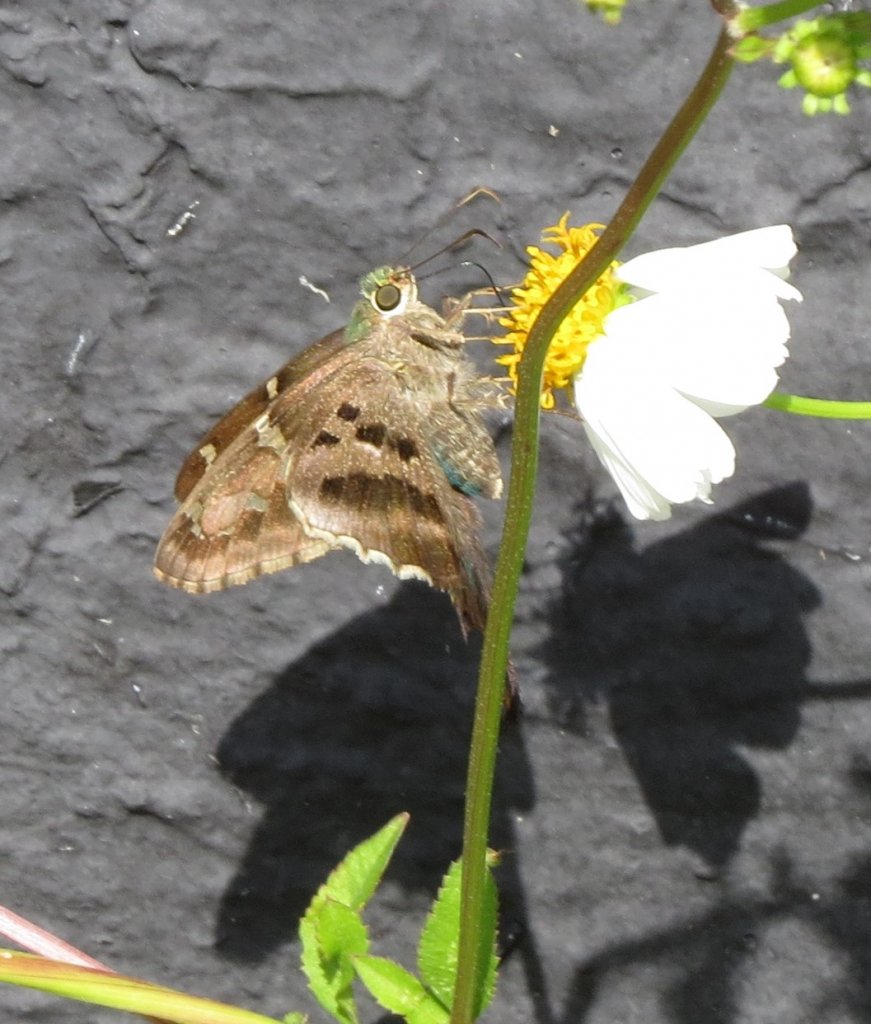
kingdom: Animalia
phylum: Arthropoda
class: Insecta
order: Lepidoptera
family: Hesperiidae
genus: Urbanus
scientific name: Urbanus proteus
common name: Long-tailed Skipper
